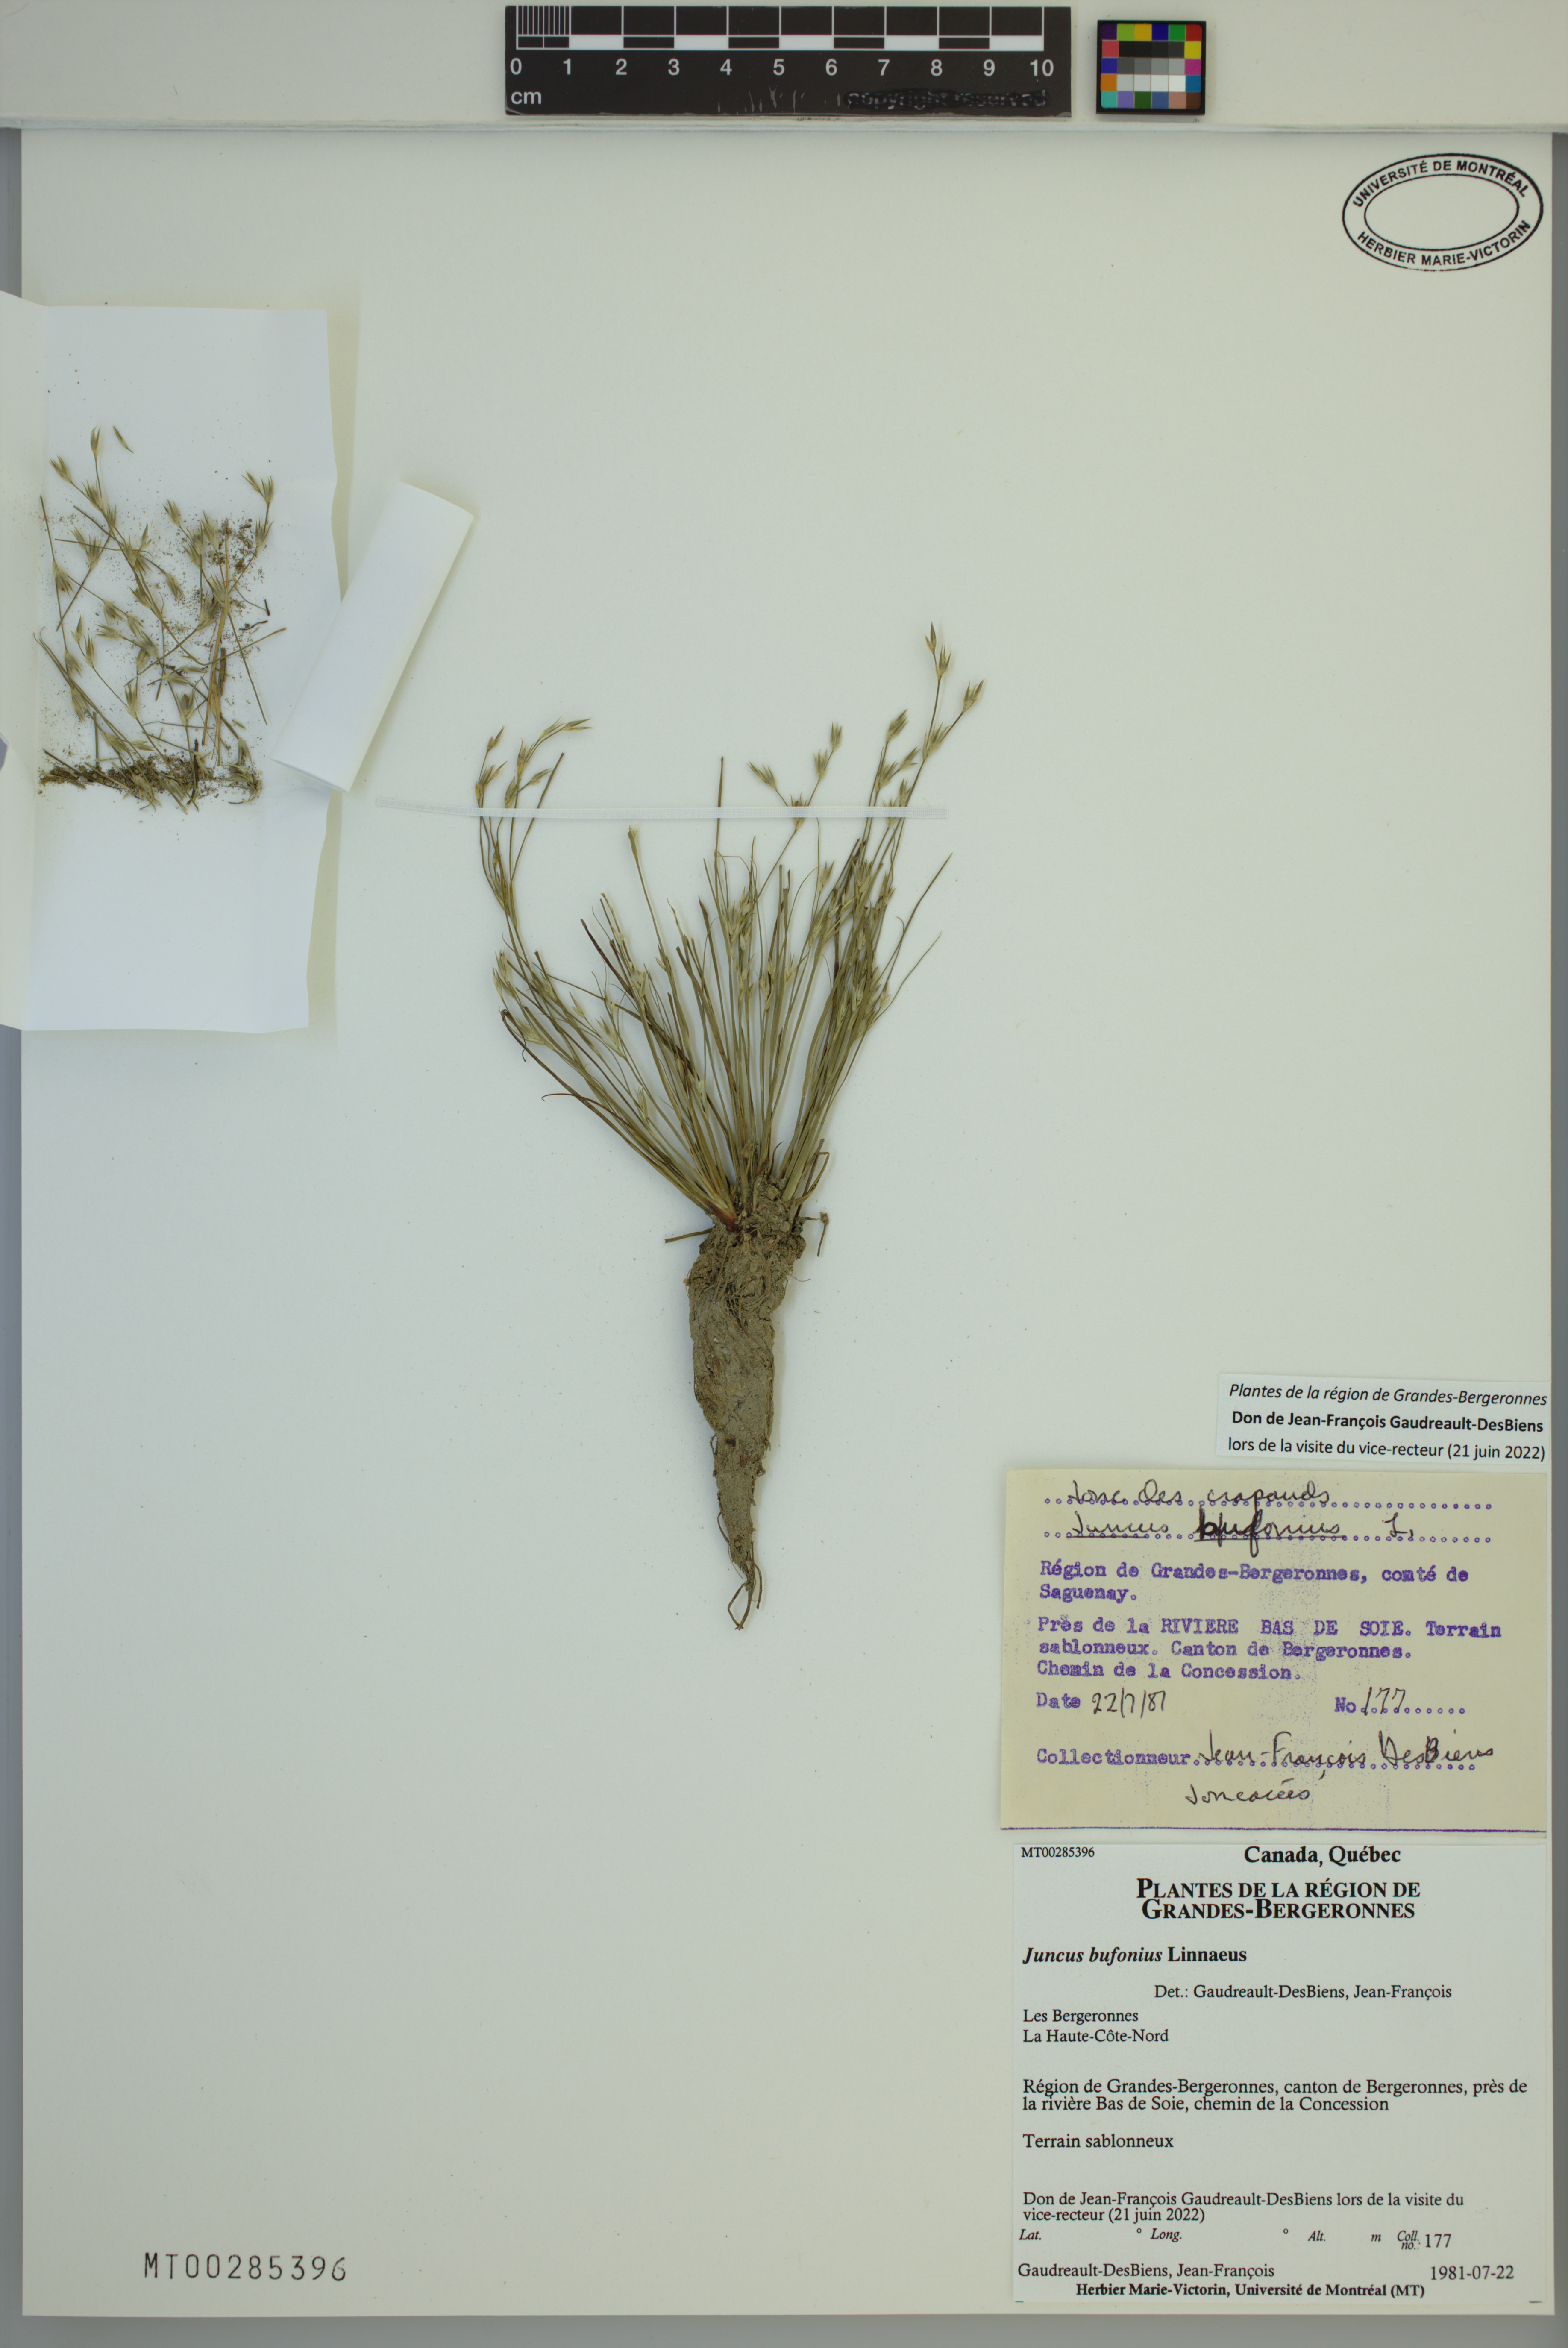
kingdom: Plantae
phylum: Tracheophyta
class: Liliopsida
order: Poales
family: Juncaceae
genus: Juncus
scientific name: Juncus bufonius
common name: Toad rush
